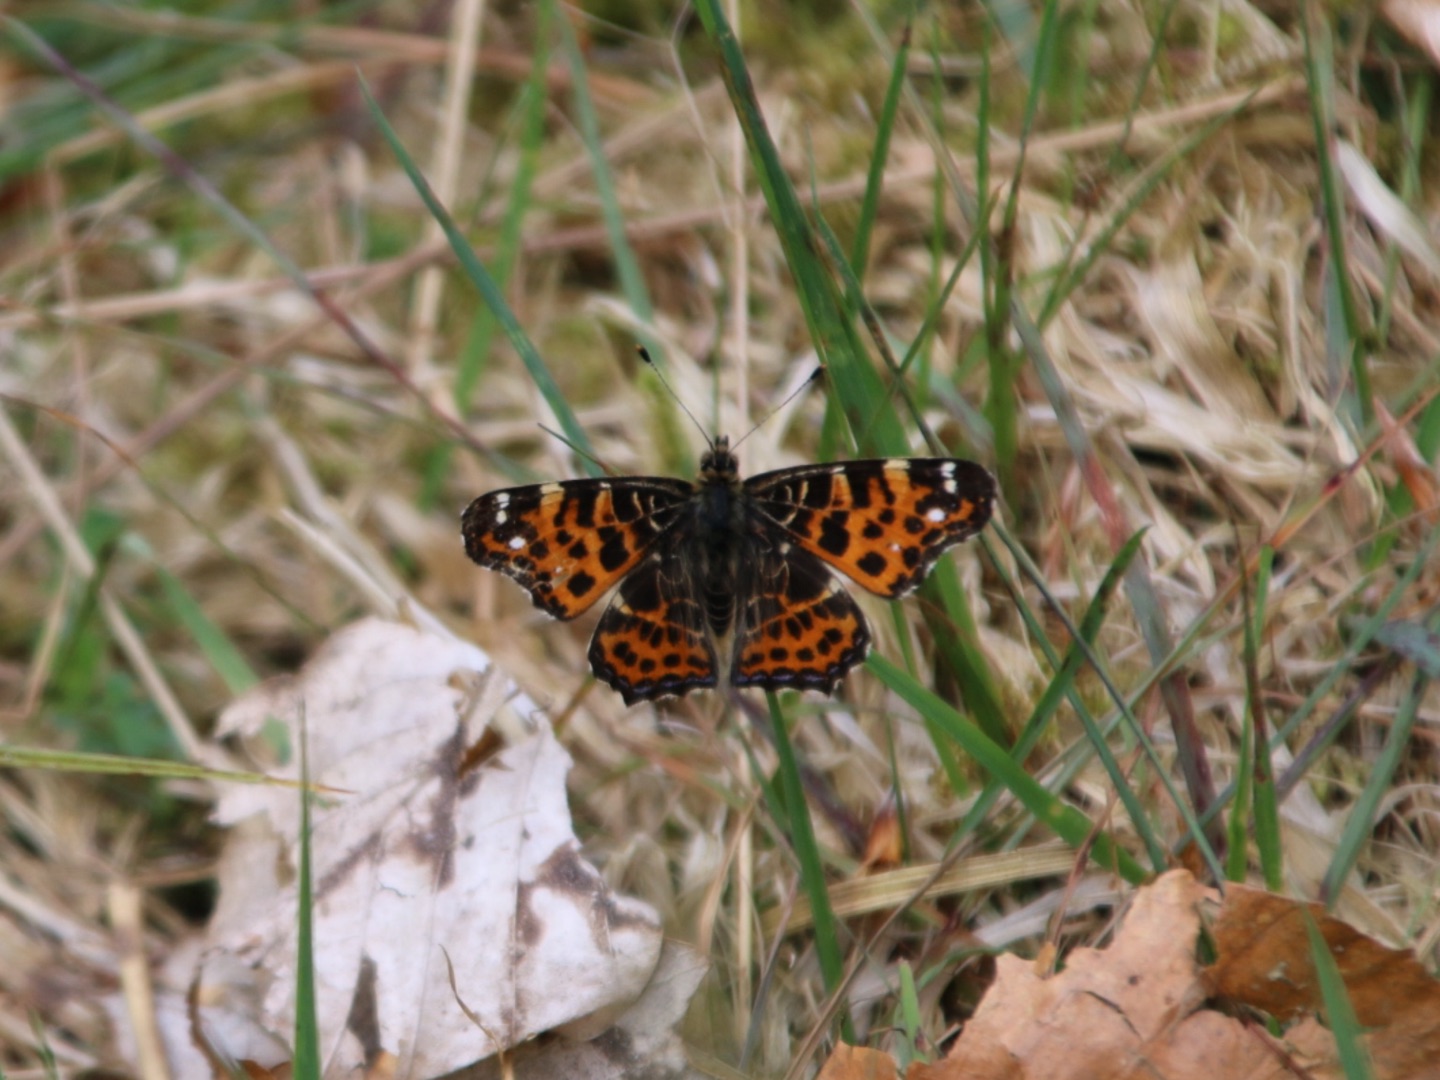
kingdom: Animalia
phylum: Arthropoda
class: Insecta
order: Lepidoptera
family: Nymphalidae
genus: Araschnia
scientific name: Araschnia levana
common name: Nældesommerfugl
